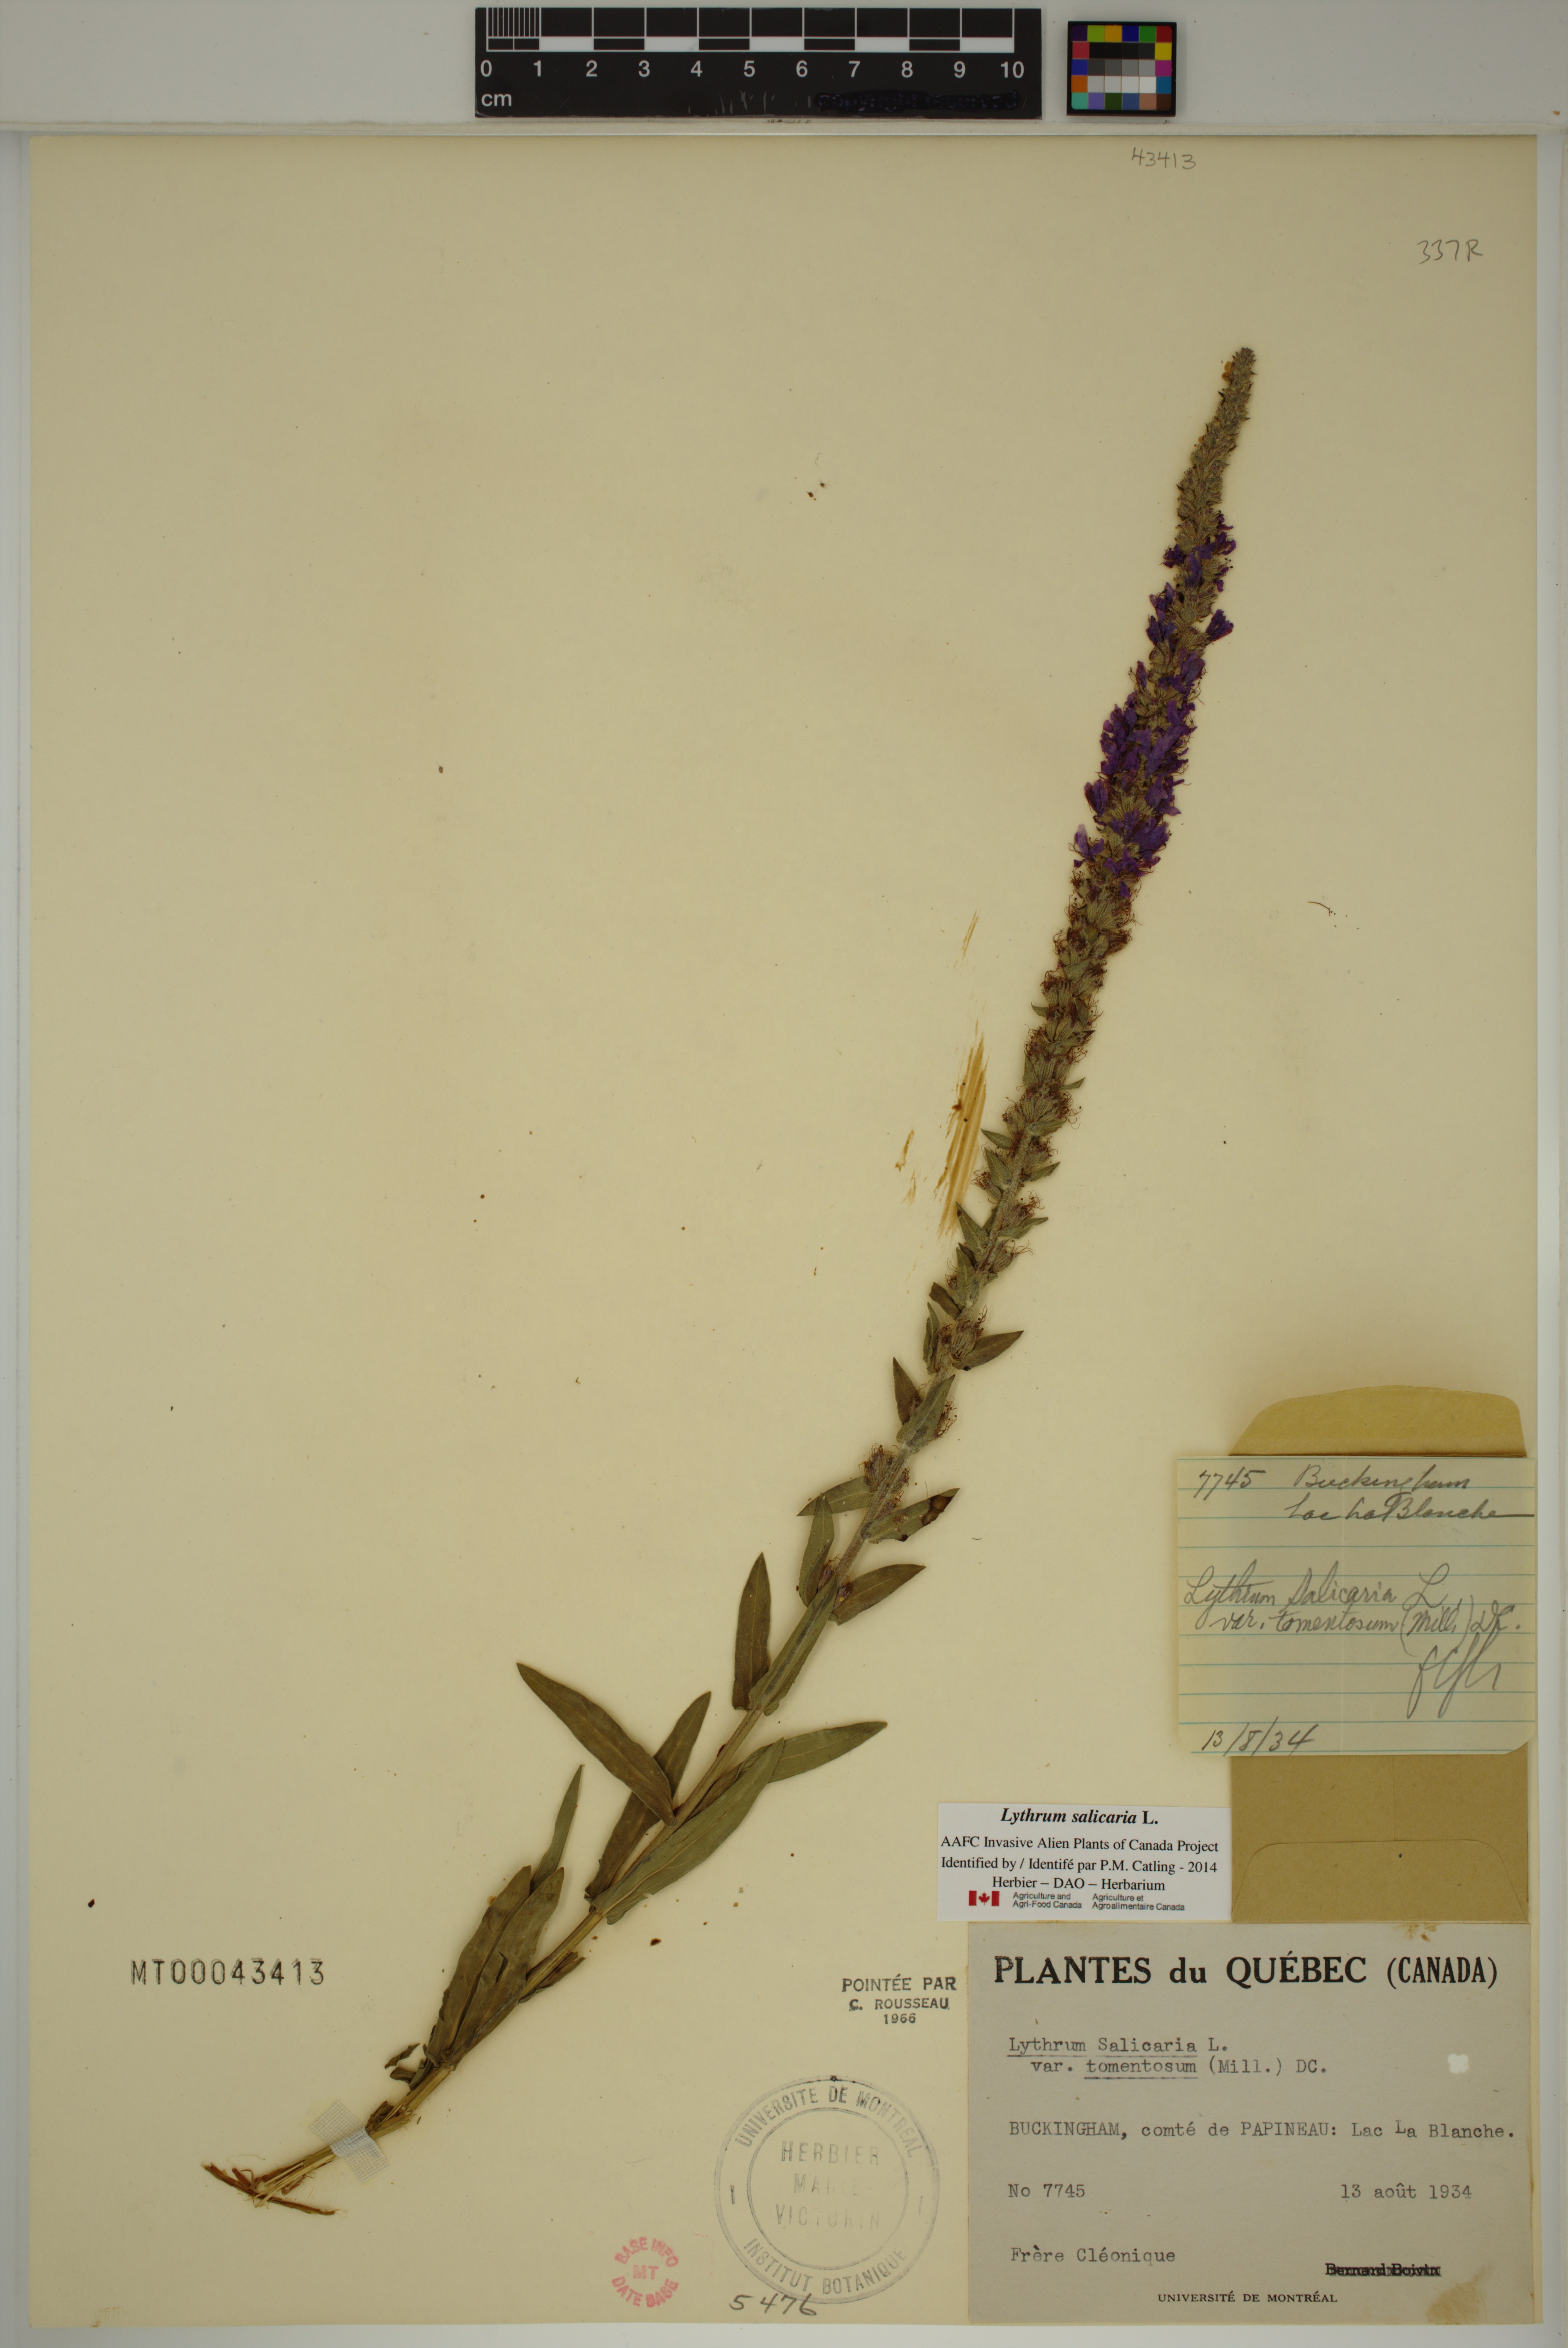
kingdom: Plantae
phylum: Tracheophyta
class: Magnoliopsida
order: Myrtales
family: Lythraceae
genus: Lythrum
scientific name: Lythrum salicaria
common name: Purple loosestrife
